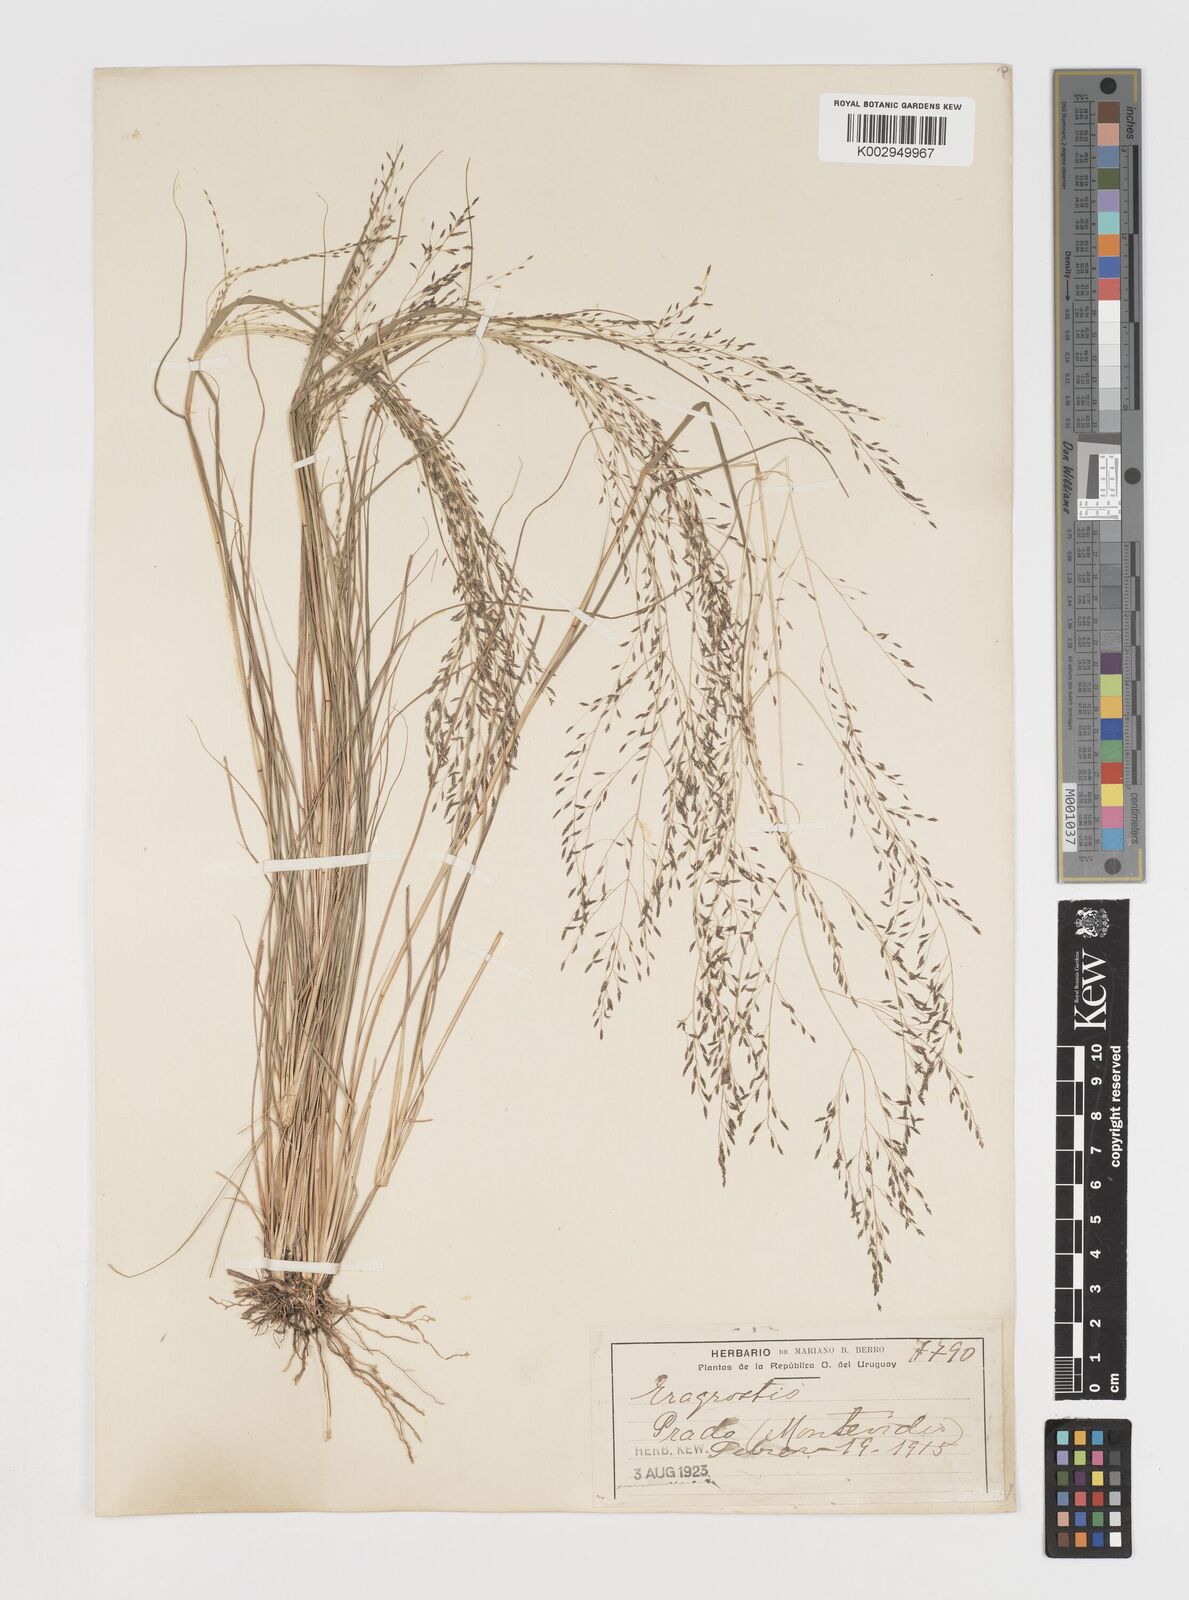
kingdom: Plantae
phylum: Tracheophyta
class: Liliopsida
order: Poales
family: Poaceae
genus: Eragrostis
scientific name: Eragrostis
